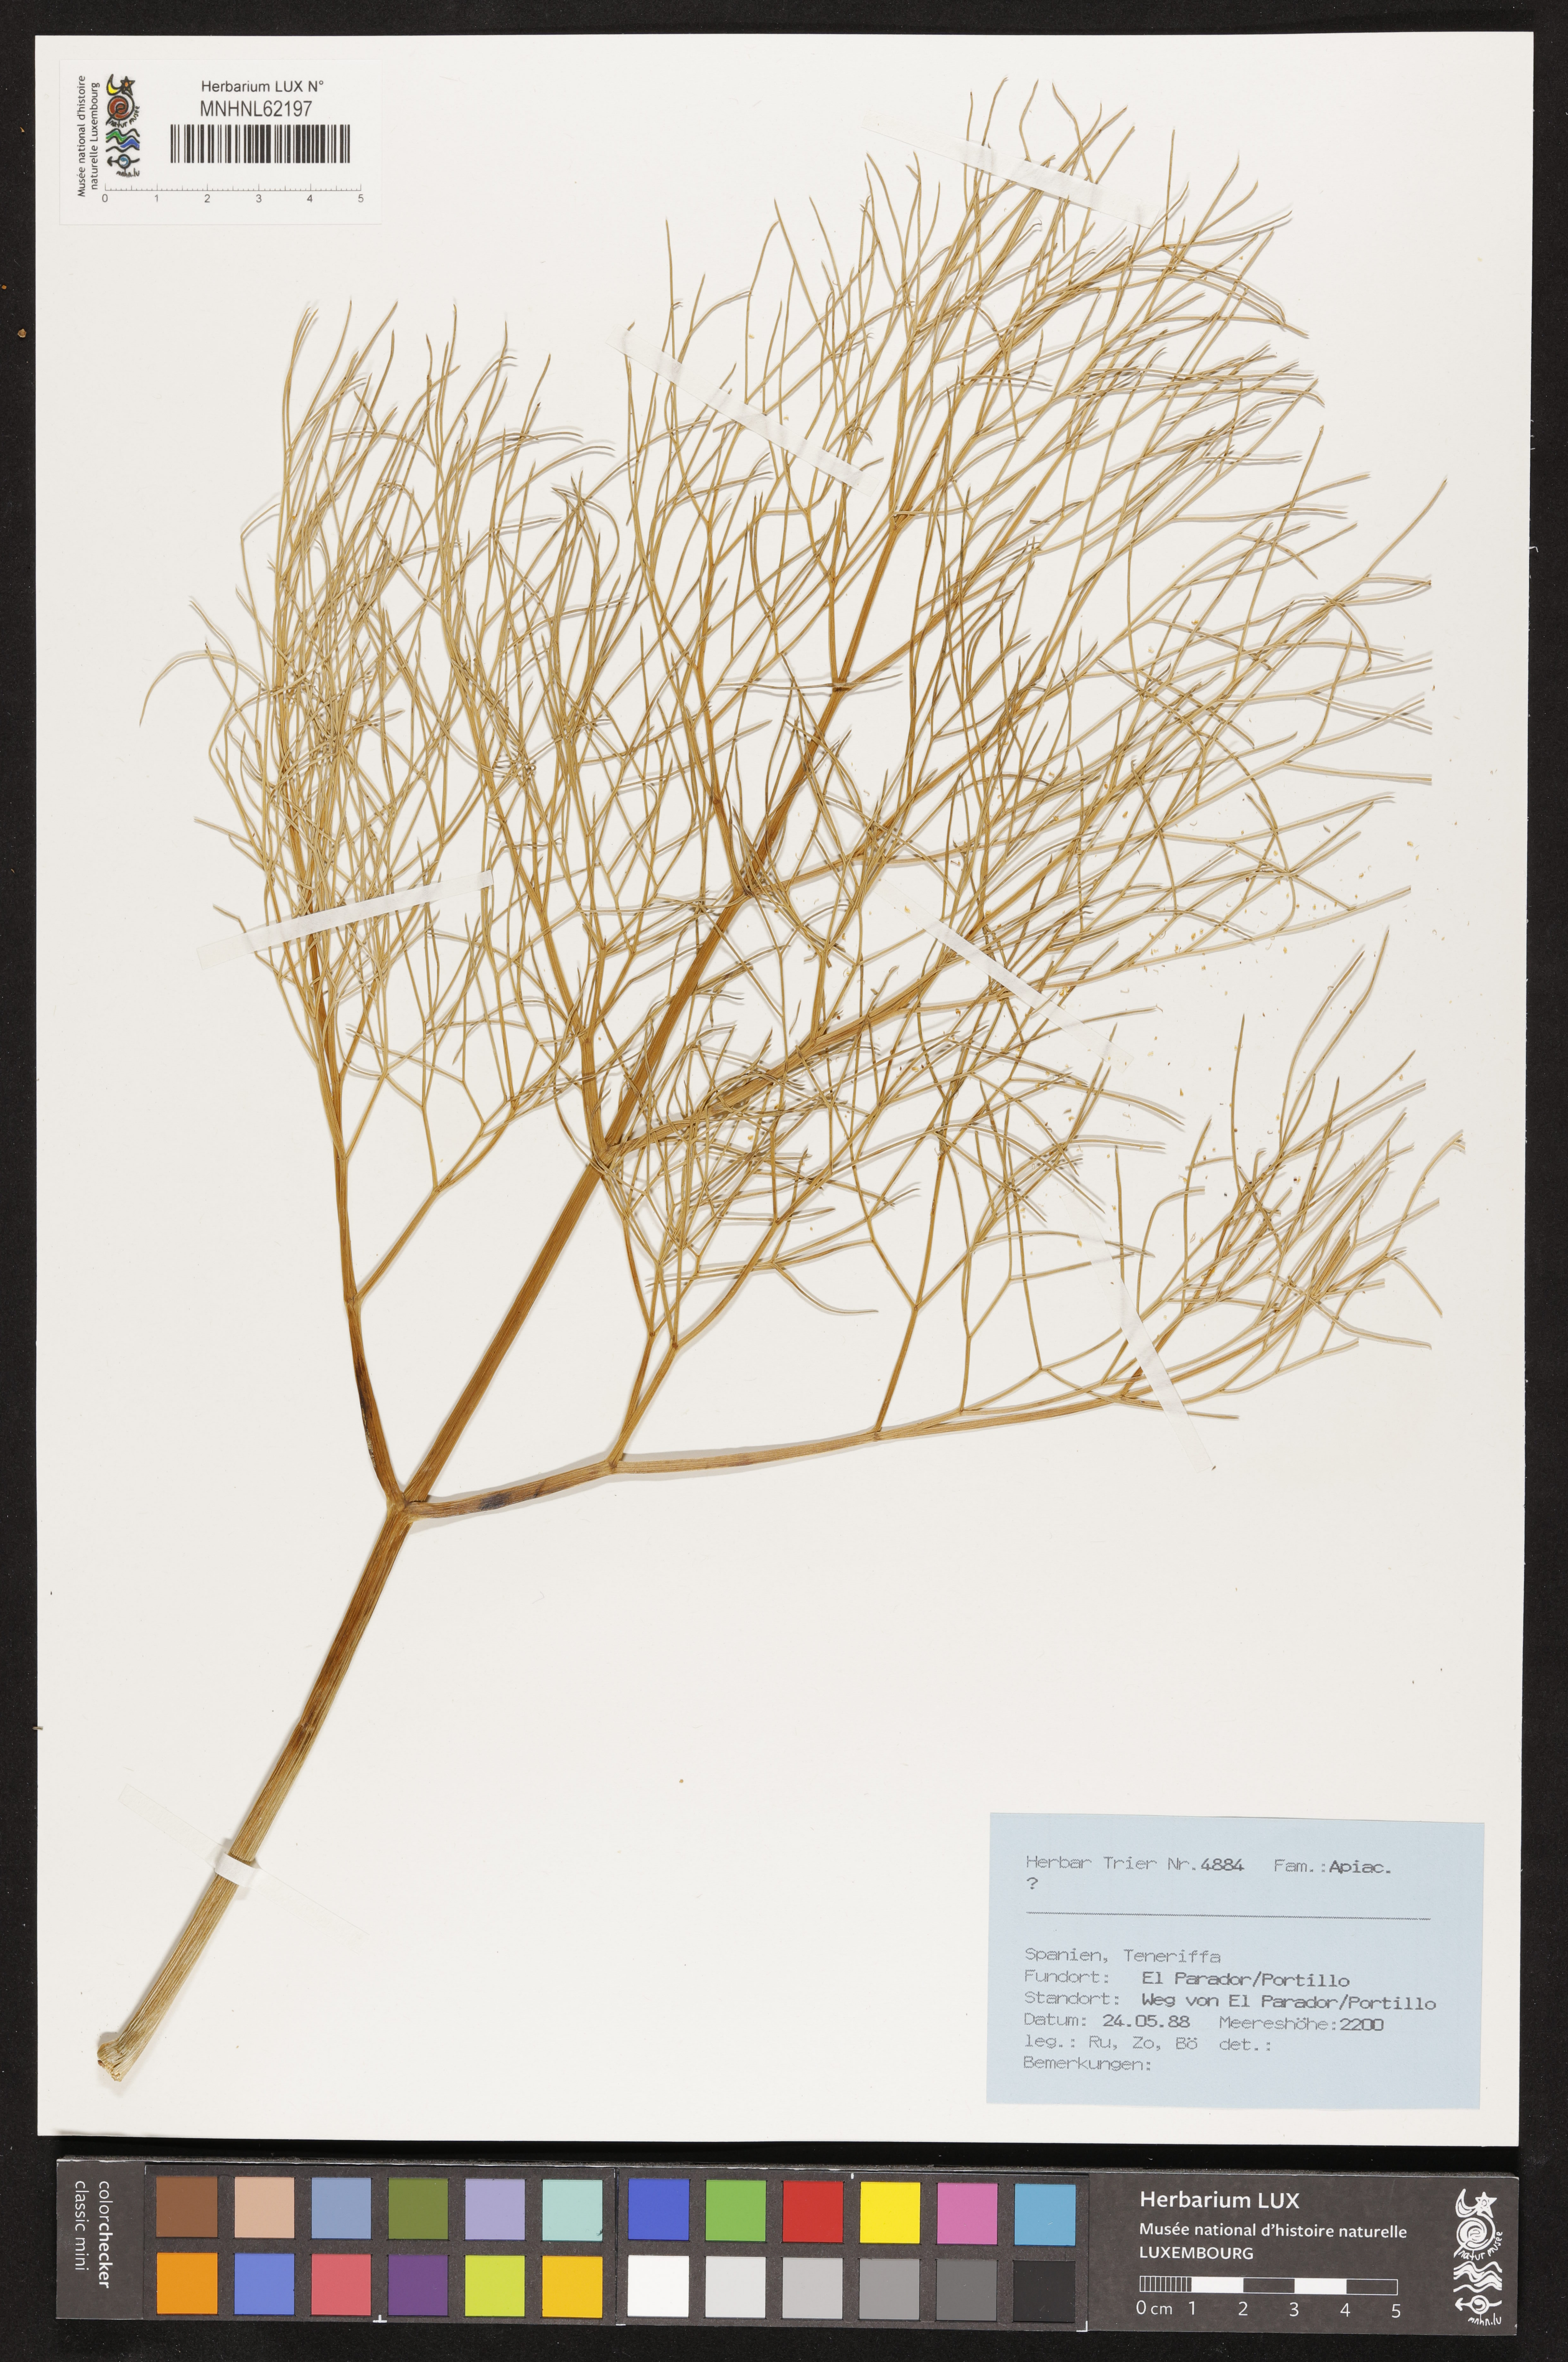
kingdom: Plantae
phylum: Tracheophyta
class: Magnoliopsida
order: Apiales
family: Apiaceae
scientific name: Apiaceae
